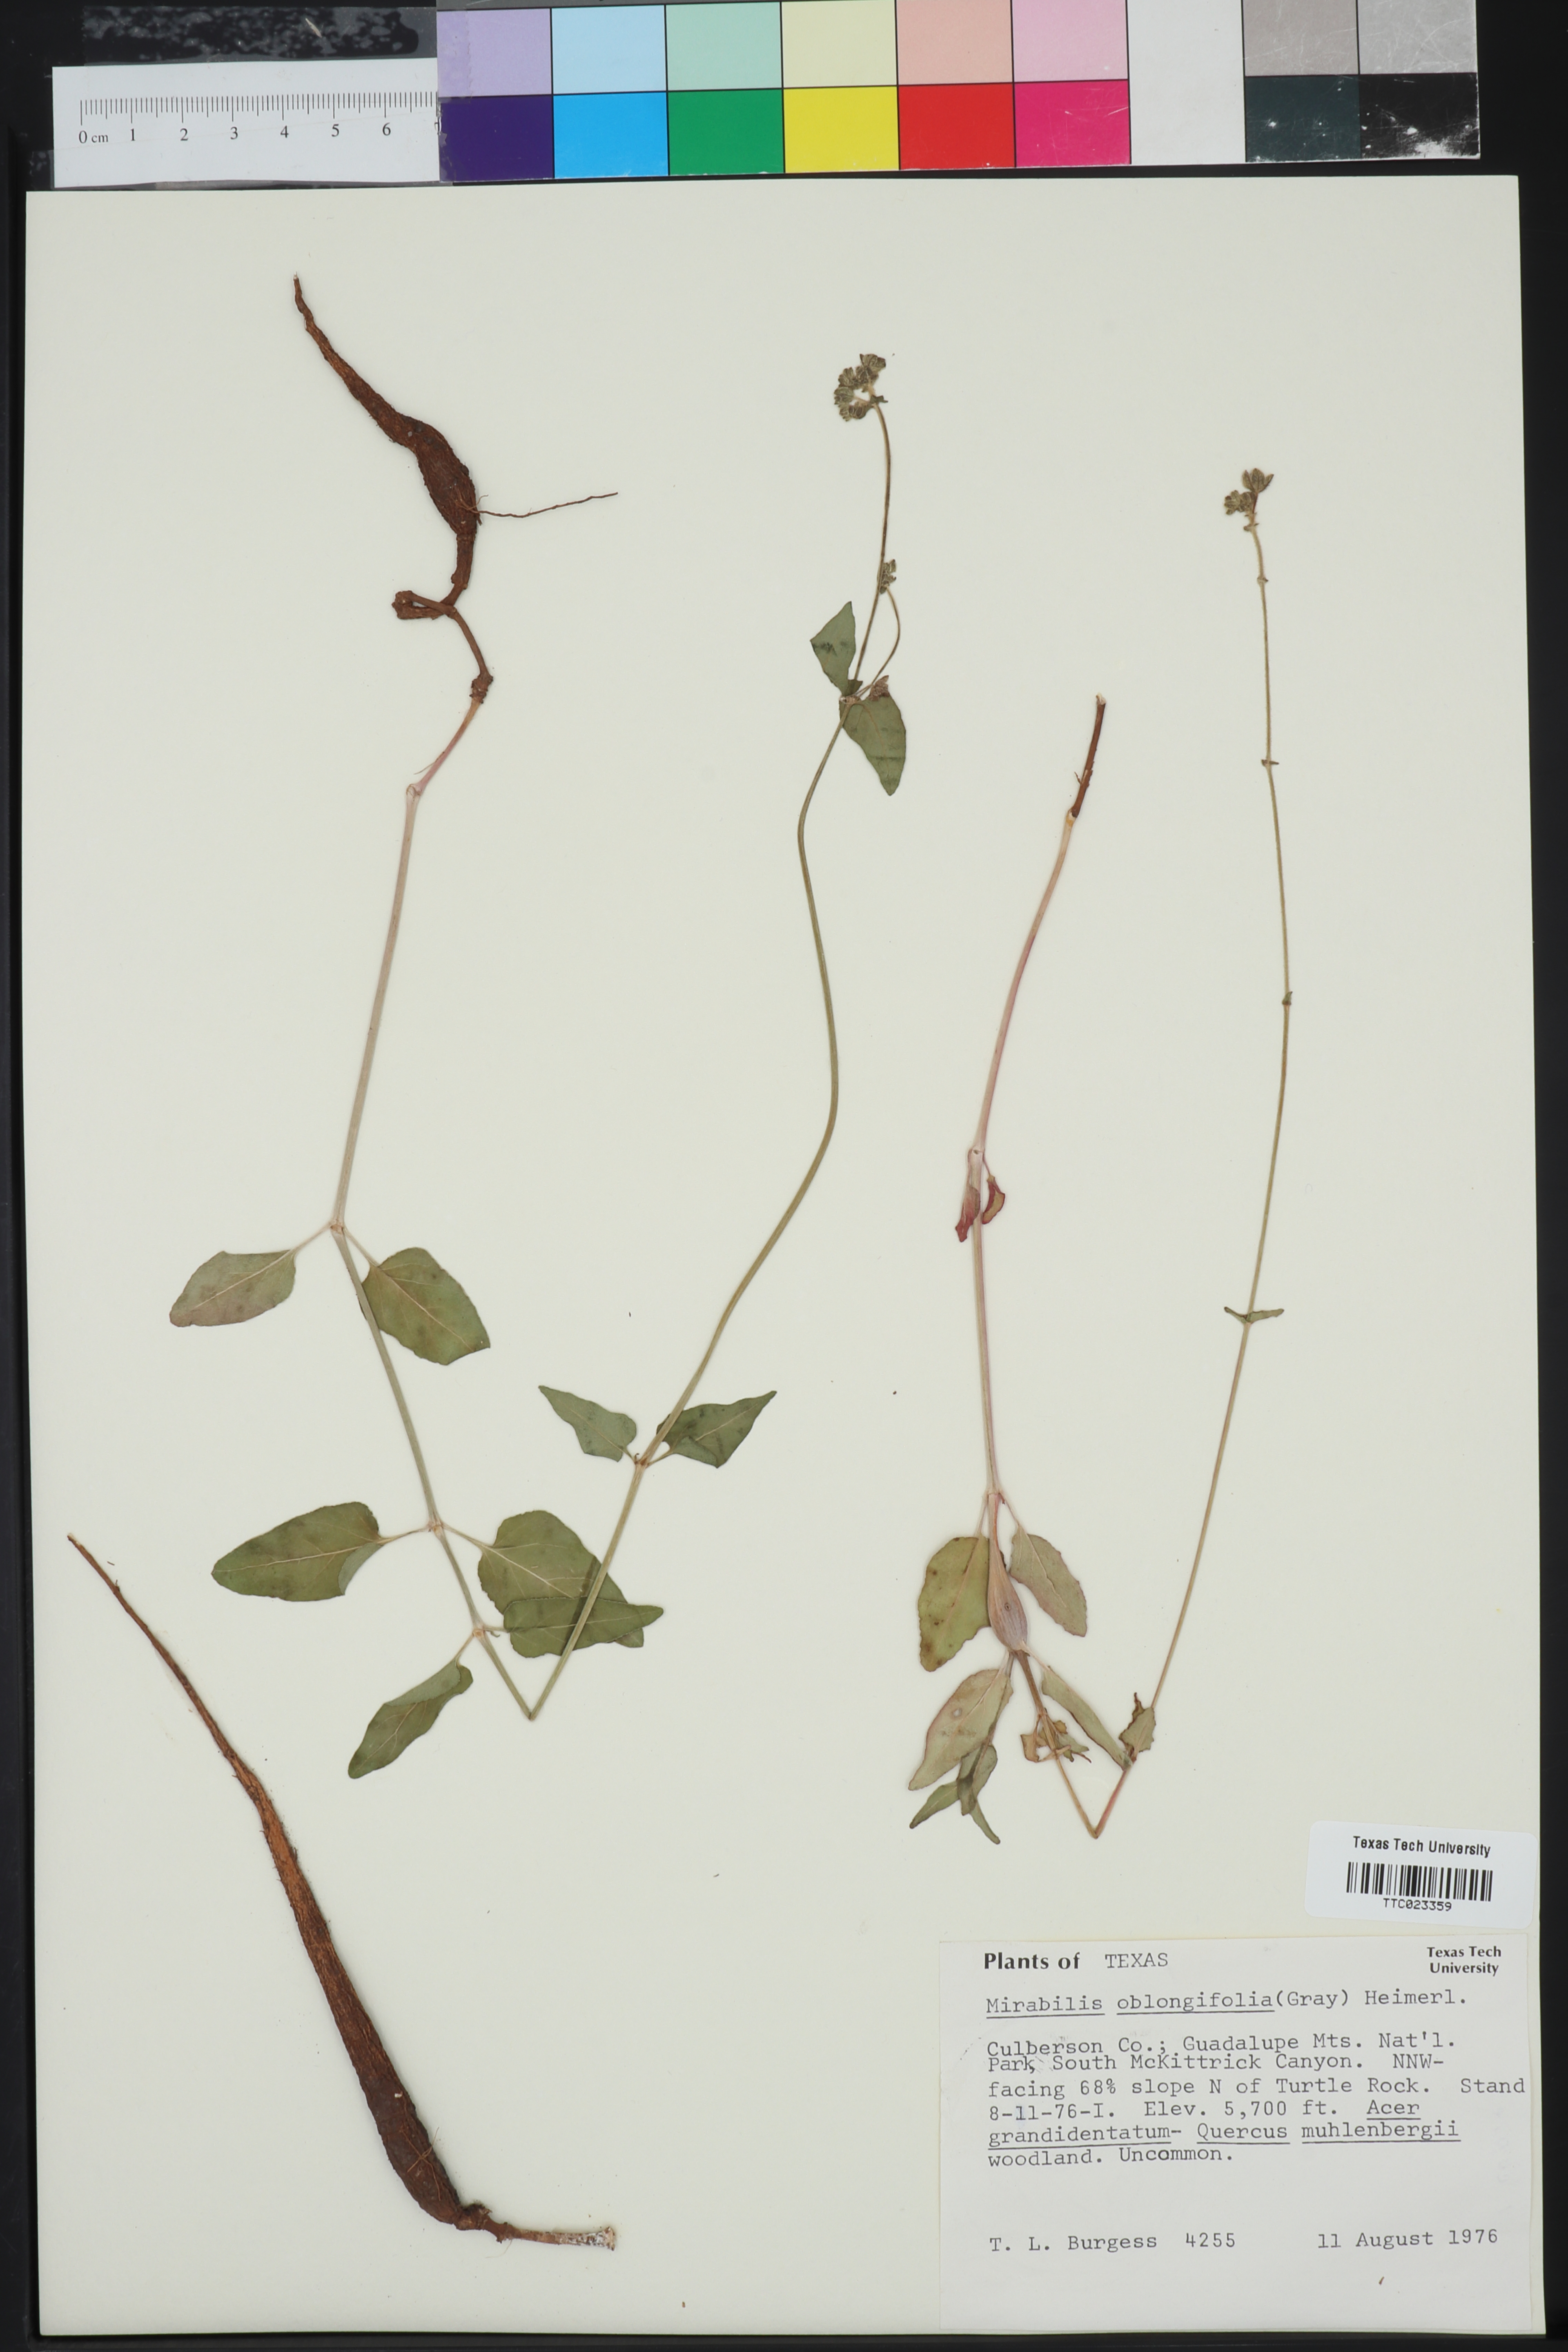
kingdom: Plantae
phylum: Tracheophyta
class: Magnoliopsida
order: Caryophyllales
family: Nyctaginaceae
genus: Mirabilis
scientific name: Mirabilis albida
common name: Hairy four-o'clock
